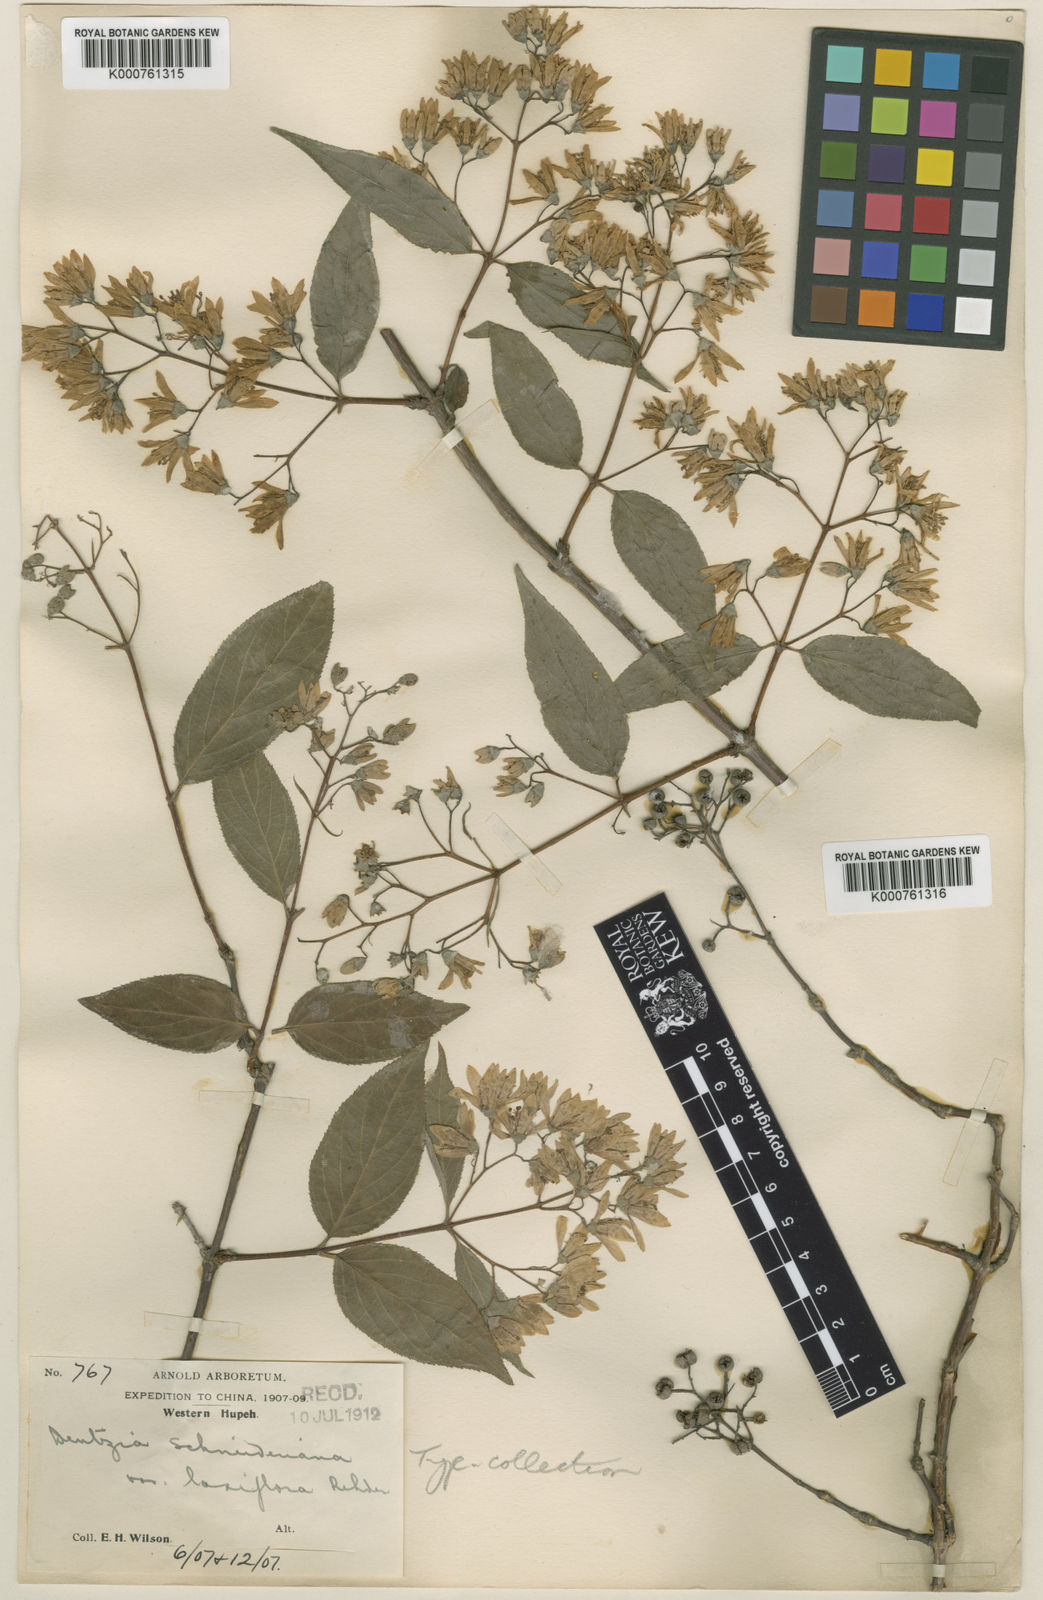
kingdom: Plantae
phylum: Tracheophyta
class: Magnoliopsida
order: Cornales
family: Hydrangeaceae
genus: Deutzia
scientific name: Deutzia schneideriana
